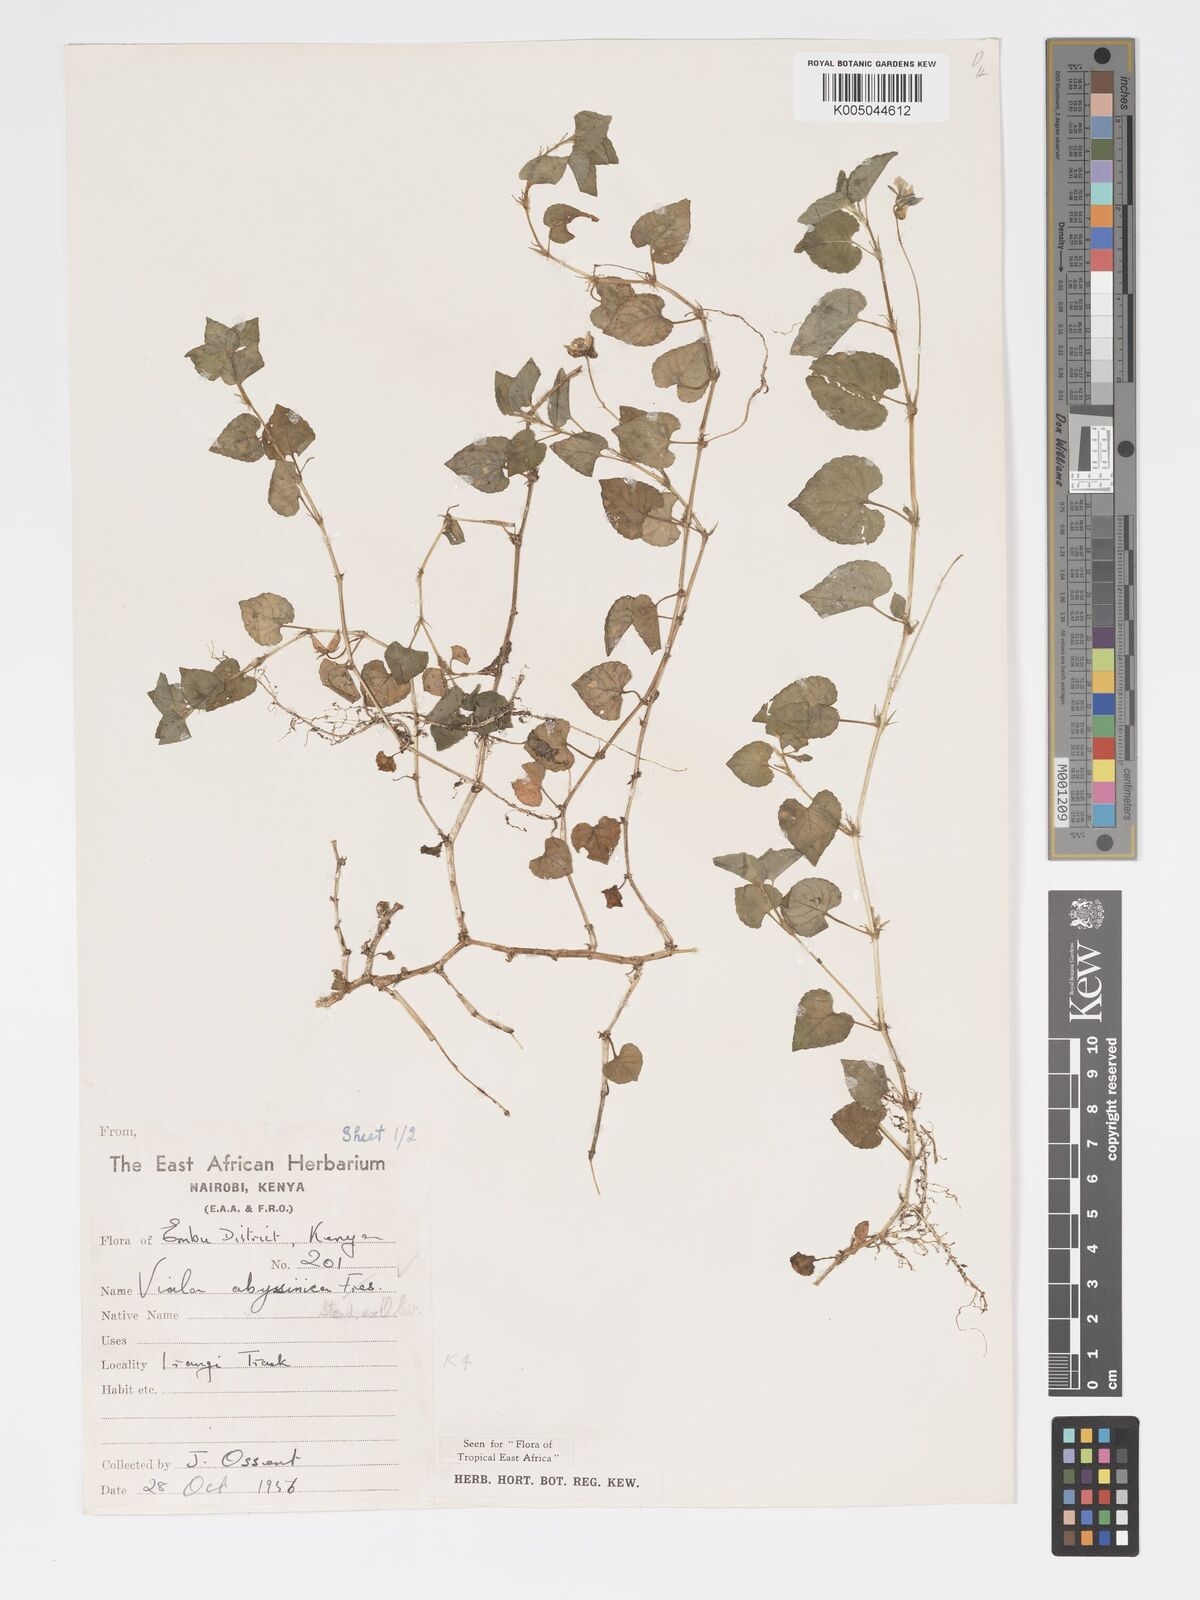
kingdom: Plantae
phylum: Tracheophyta
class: Magnoliopsida
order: Malpighiales
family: Violaceae
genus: Viola
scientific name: Viola abyssinica
